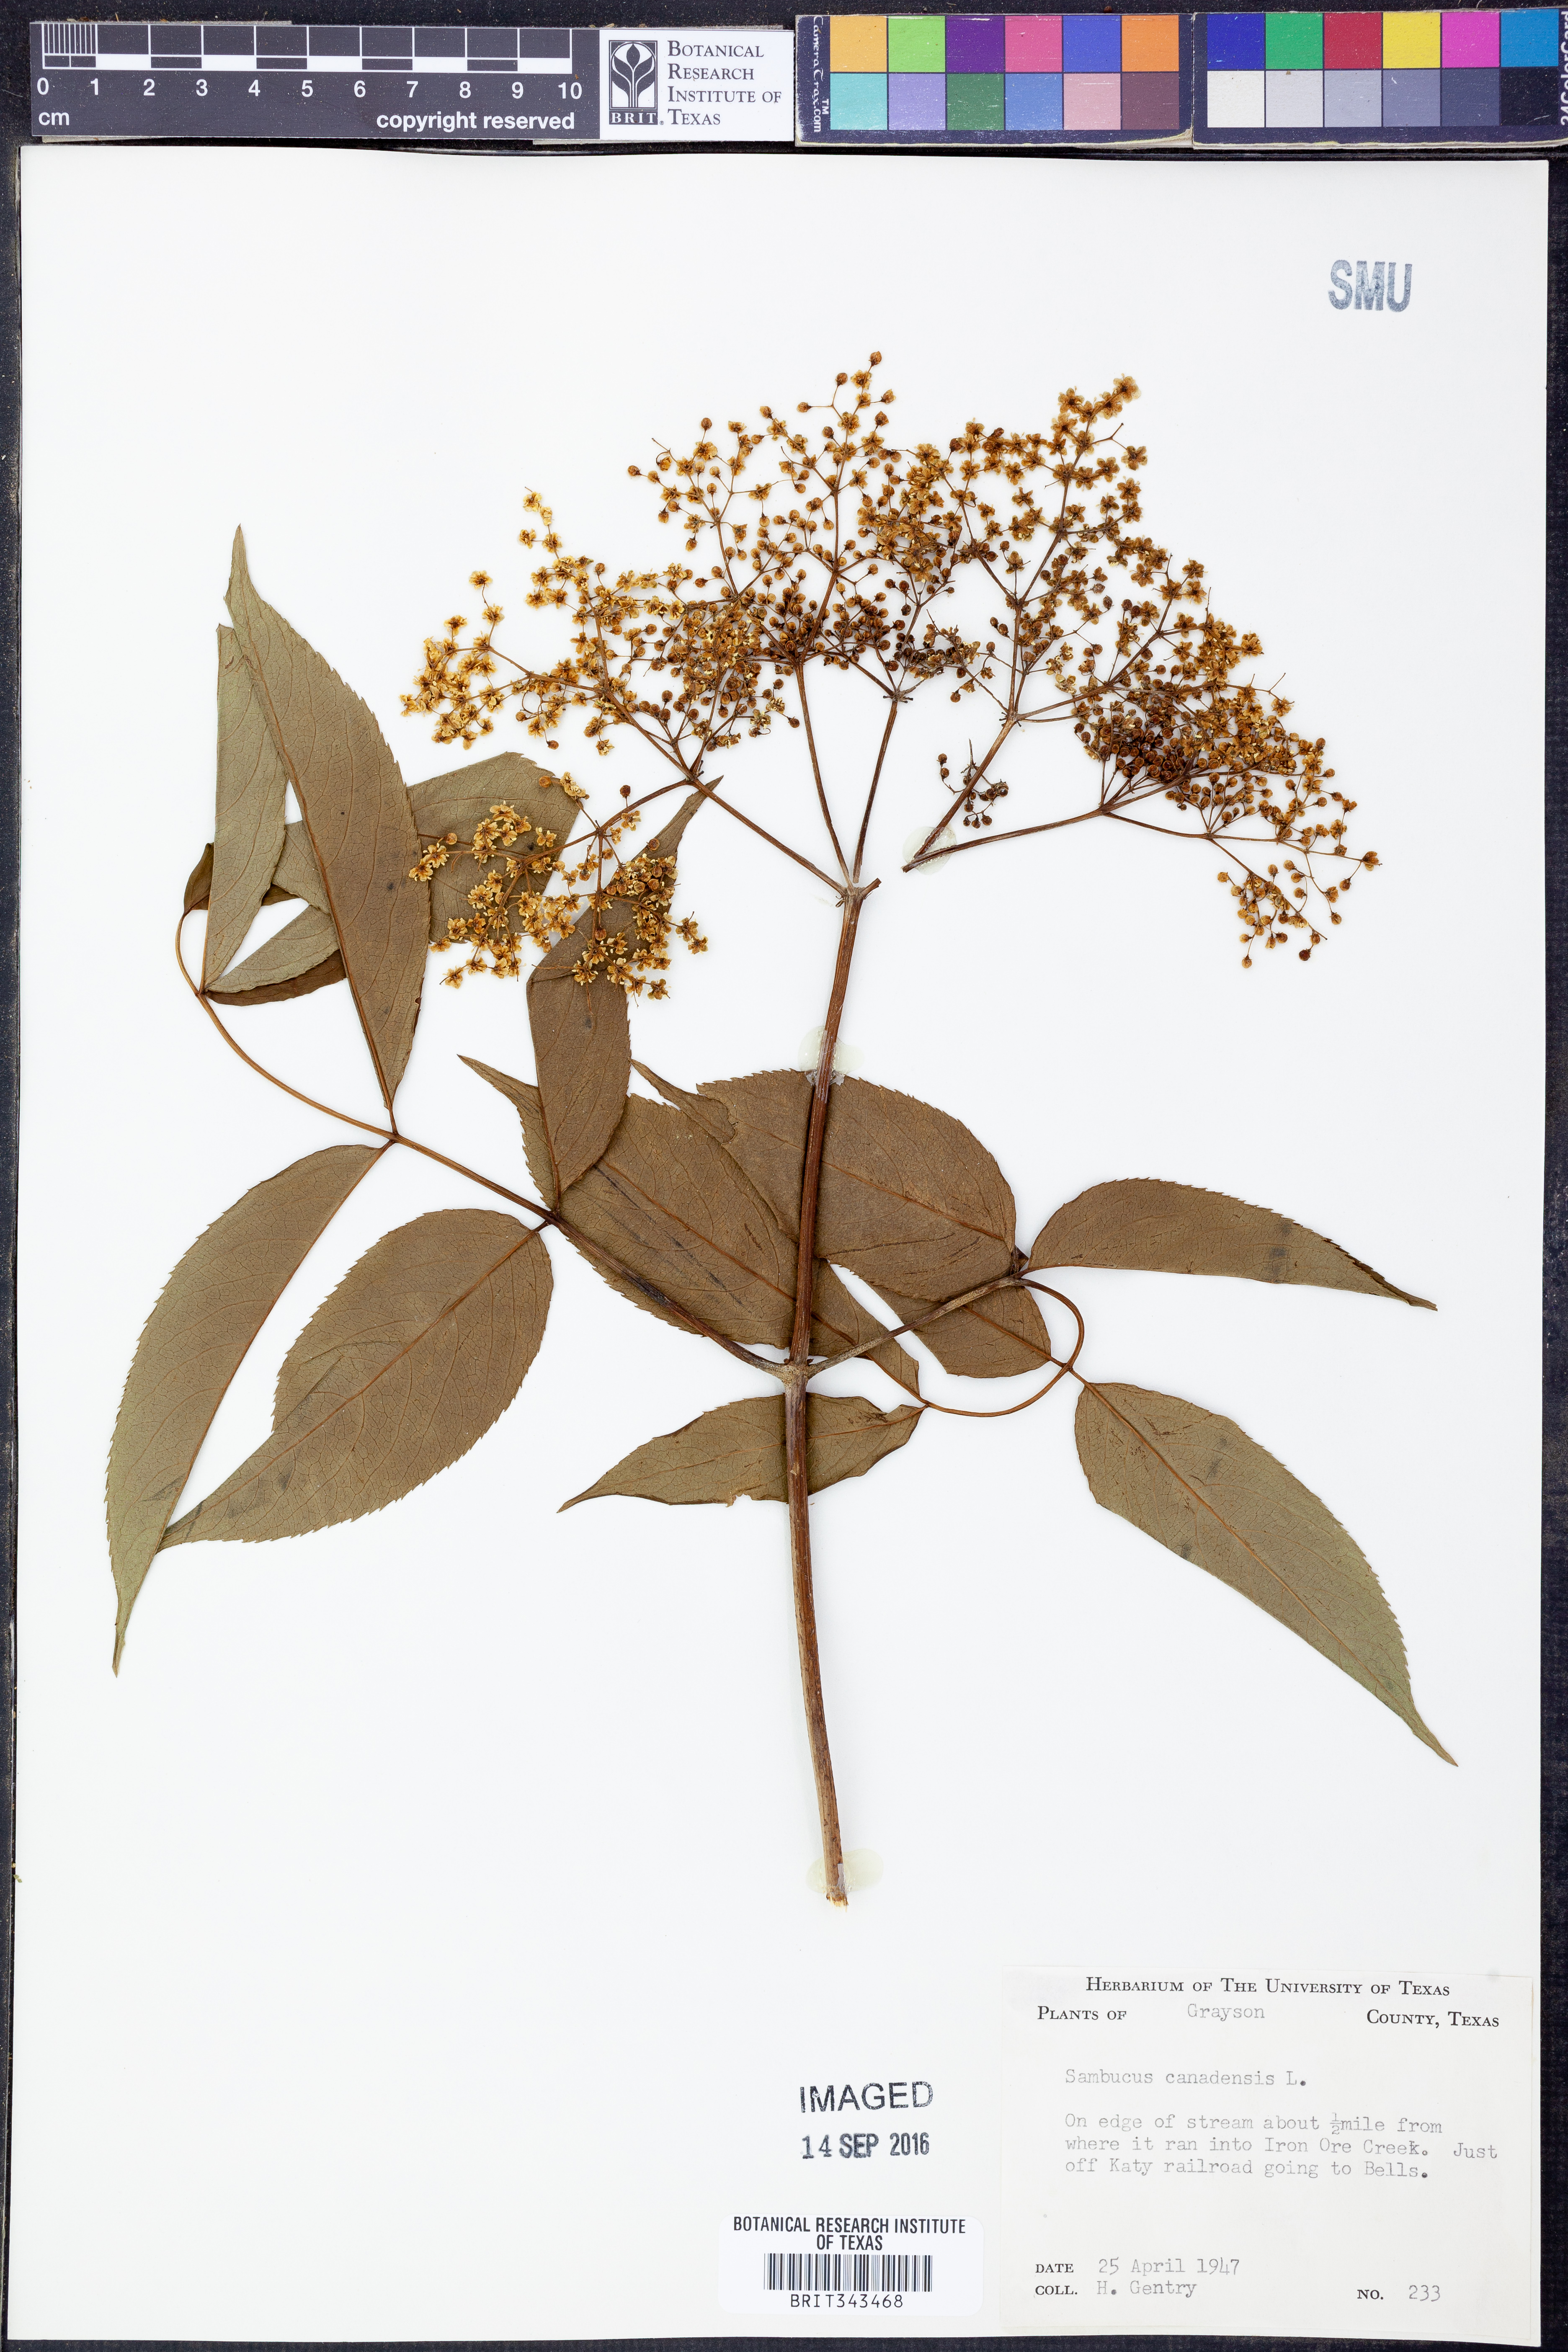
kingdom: Plantae
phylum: Tracheophyta
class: Magnoliopsida
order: Dipsacales
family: Viburnaceae
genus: Sambucus
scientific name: Sambucus canadensis
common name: American elder
